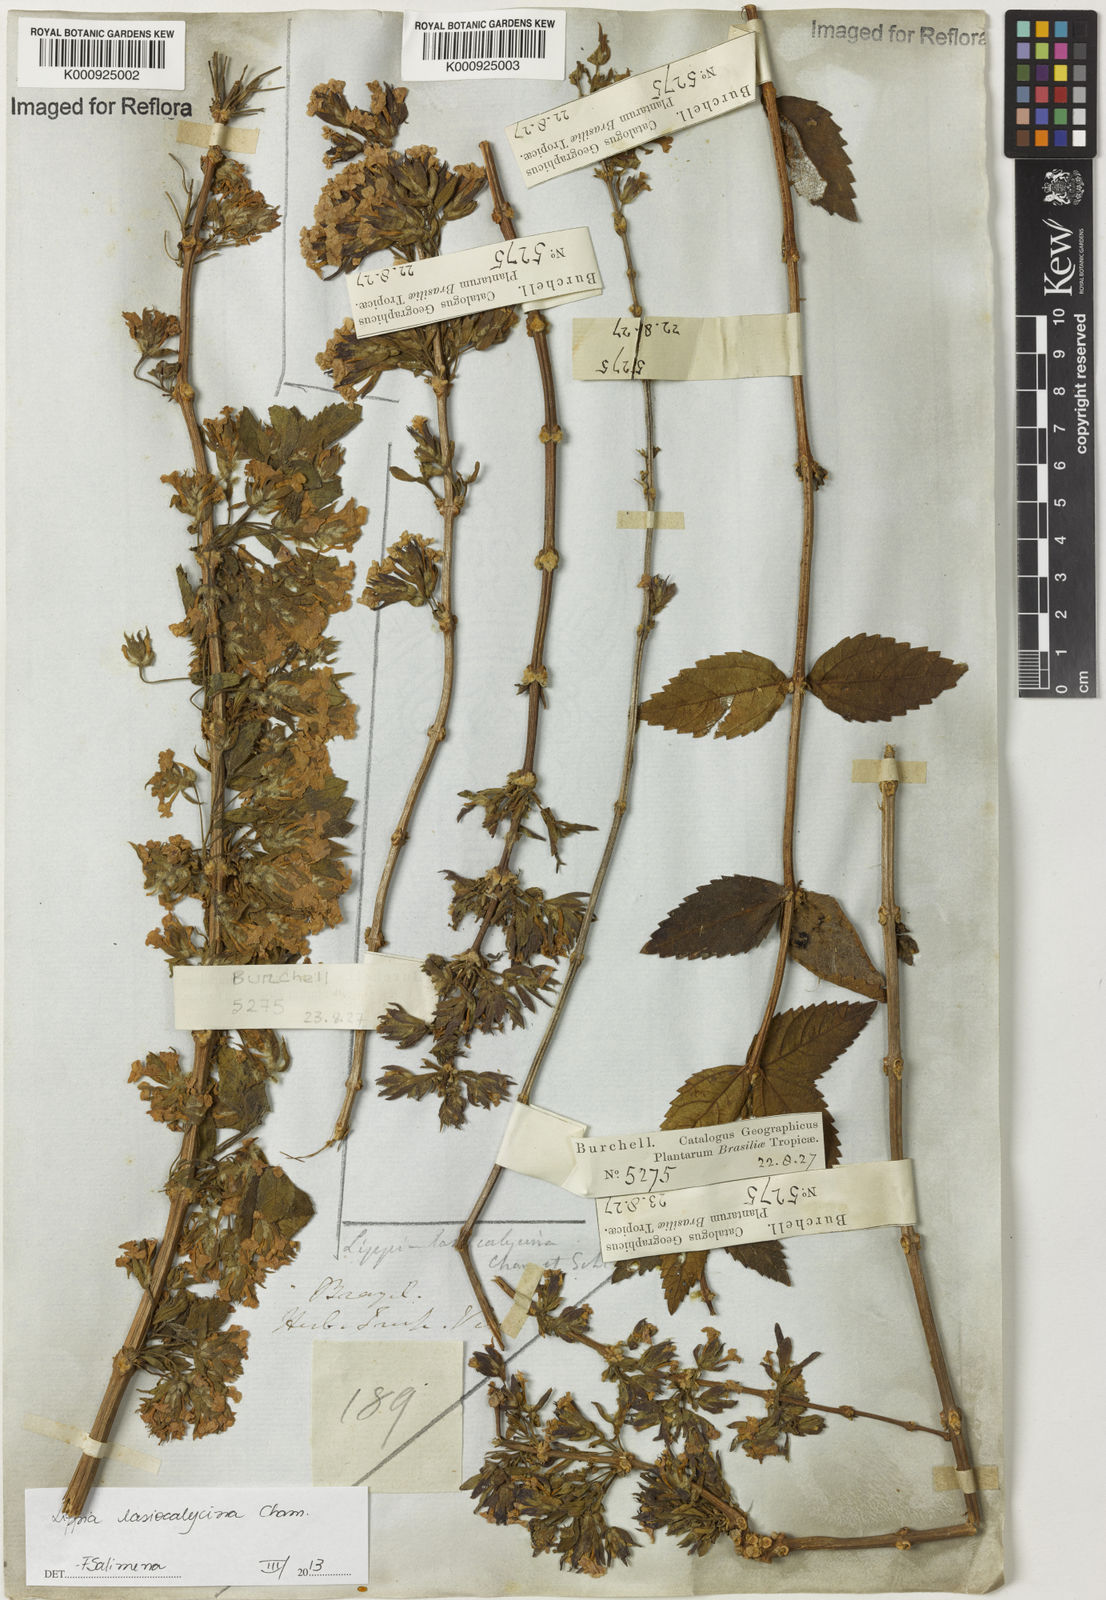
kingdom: Plantae
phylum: Tracheophyta
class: Magnoliopsida
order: Lamiales
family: Verbenaceae
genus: Lippia
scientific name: Lippia lasiocalycina
